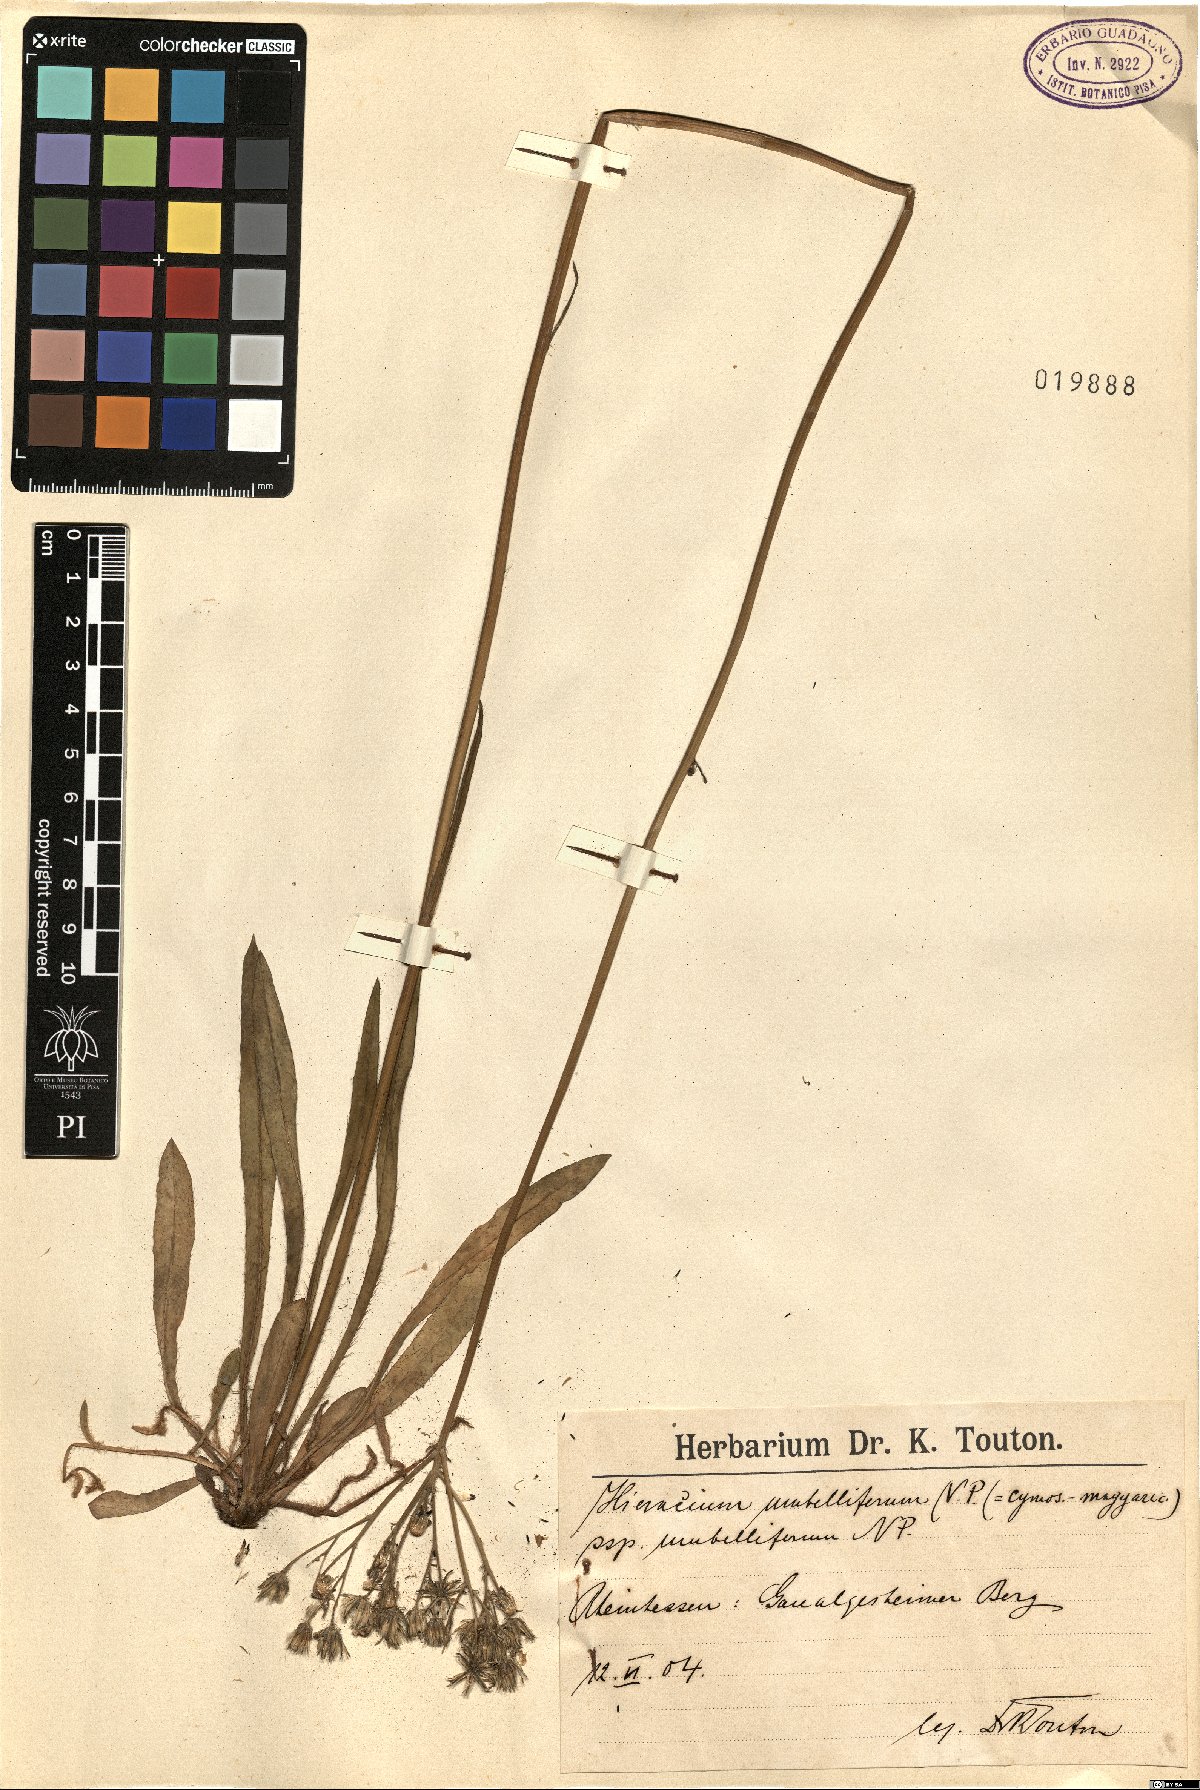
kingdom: Plantae
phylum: Tracheophyta
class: Magnoliopsida
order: Asterales
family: Asteraceae
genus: Pilosella
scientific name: Pilosella densiflora
